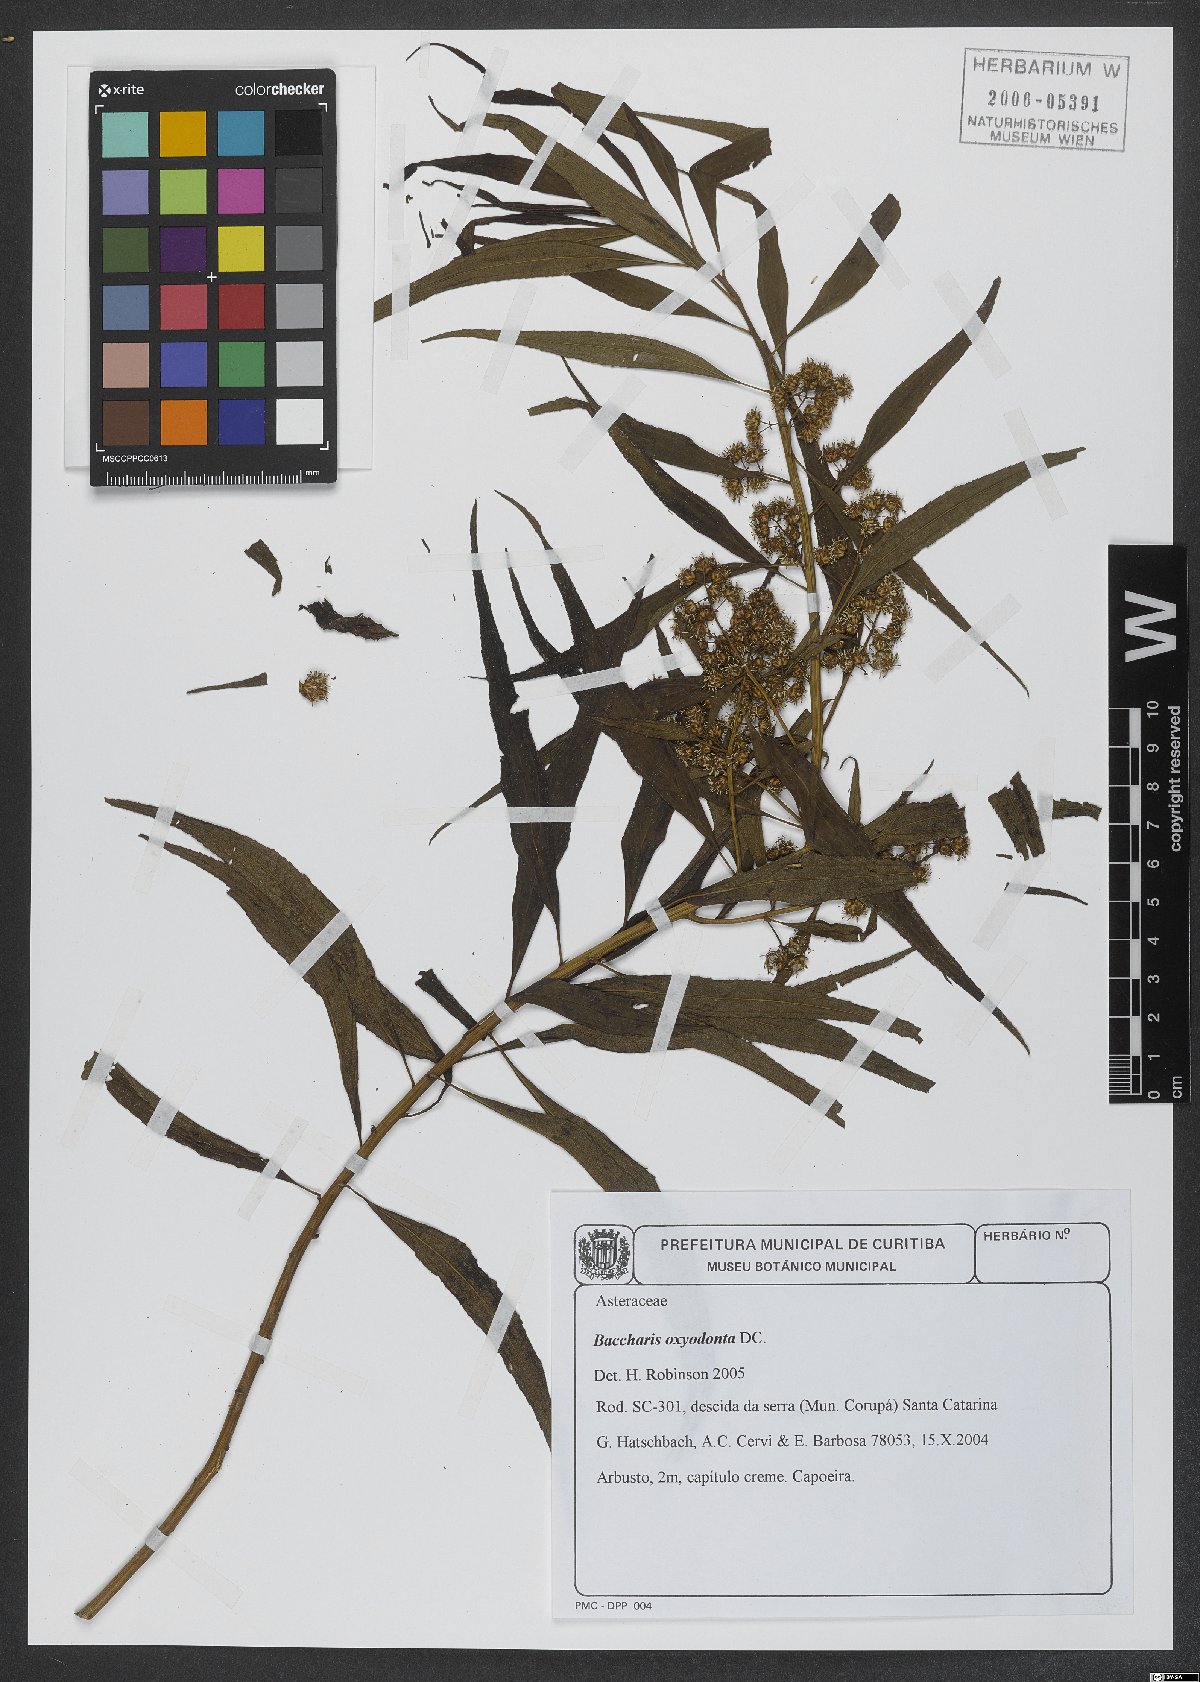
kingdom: Plantae
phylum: Tracheophyta
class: Magnoliopsida
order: Asterales
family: Asteraceae
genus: Baccharis
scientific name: Baccharis oxyodonta
